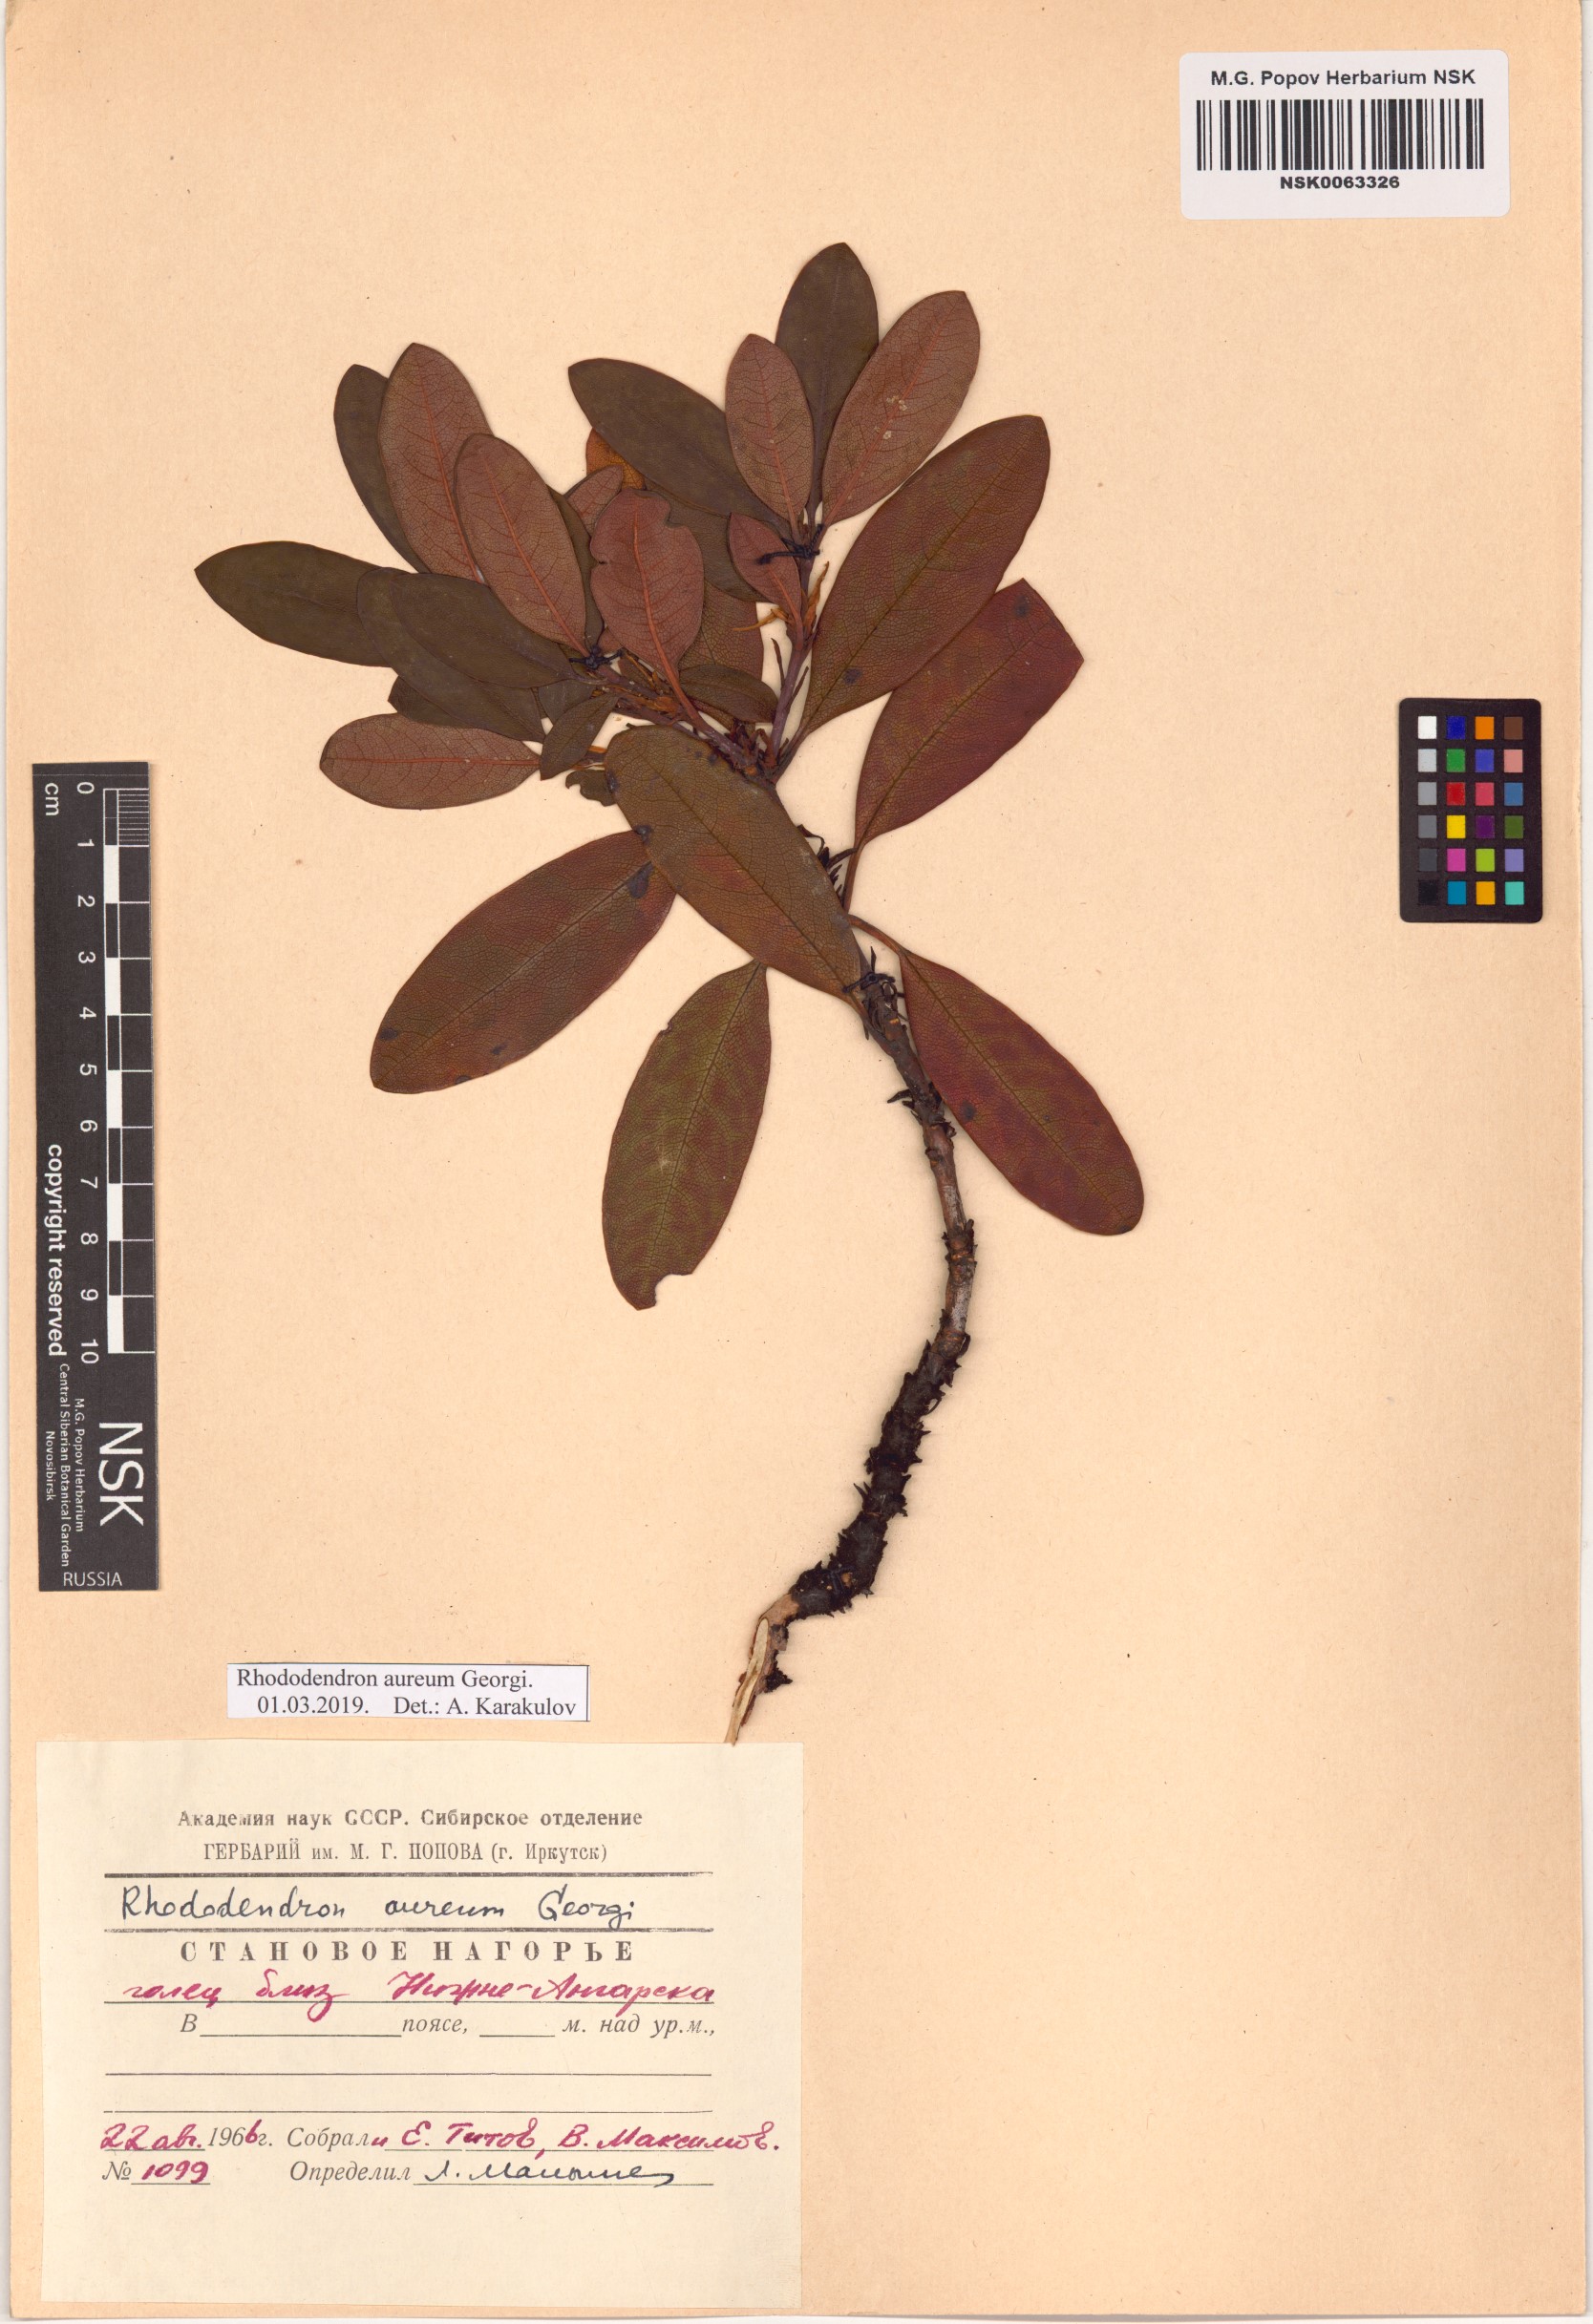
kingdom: Plantae
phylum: Tracheophyta
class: Magnoliopsida
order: Ericales
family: Ericaceae
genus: Rhododendron
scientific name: Rhododendron aureum
